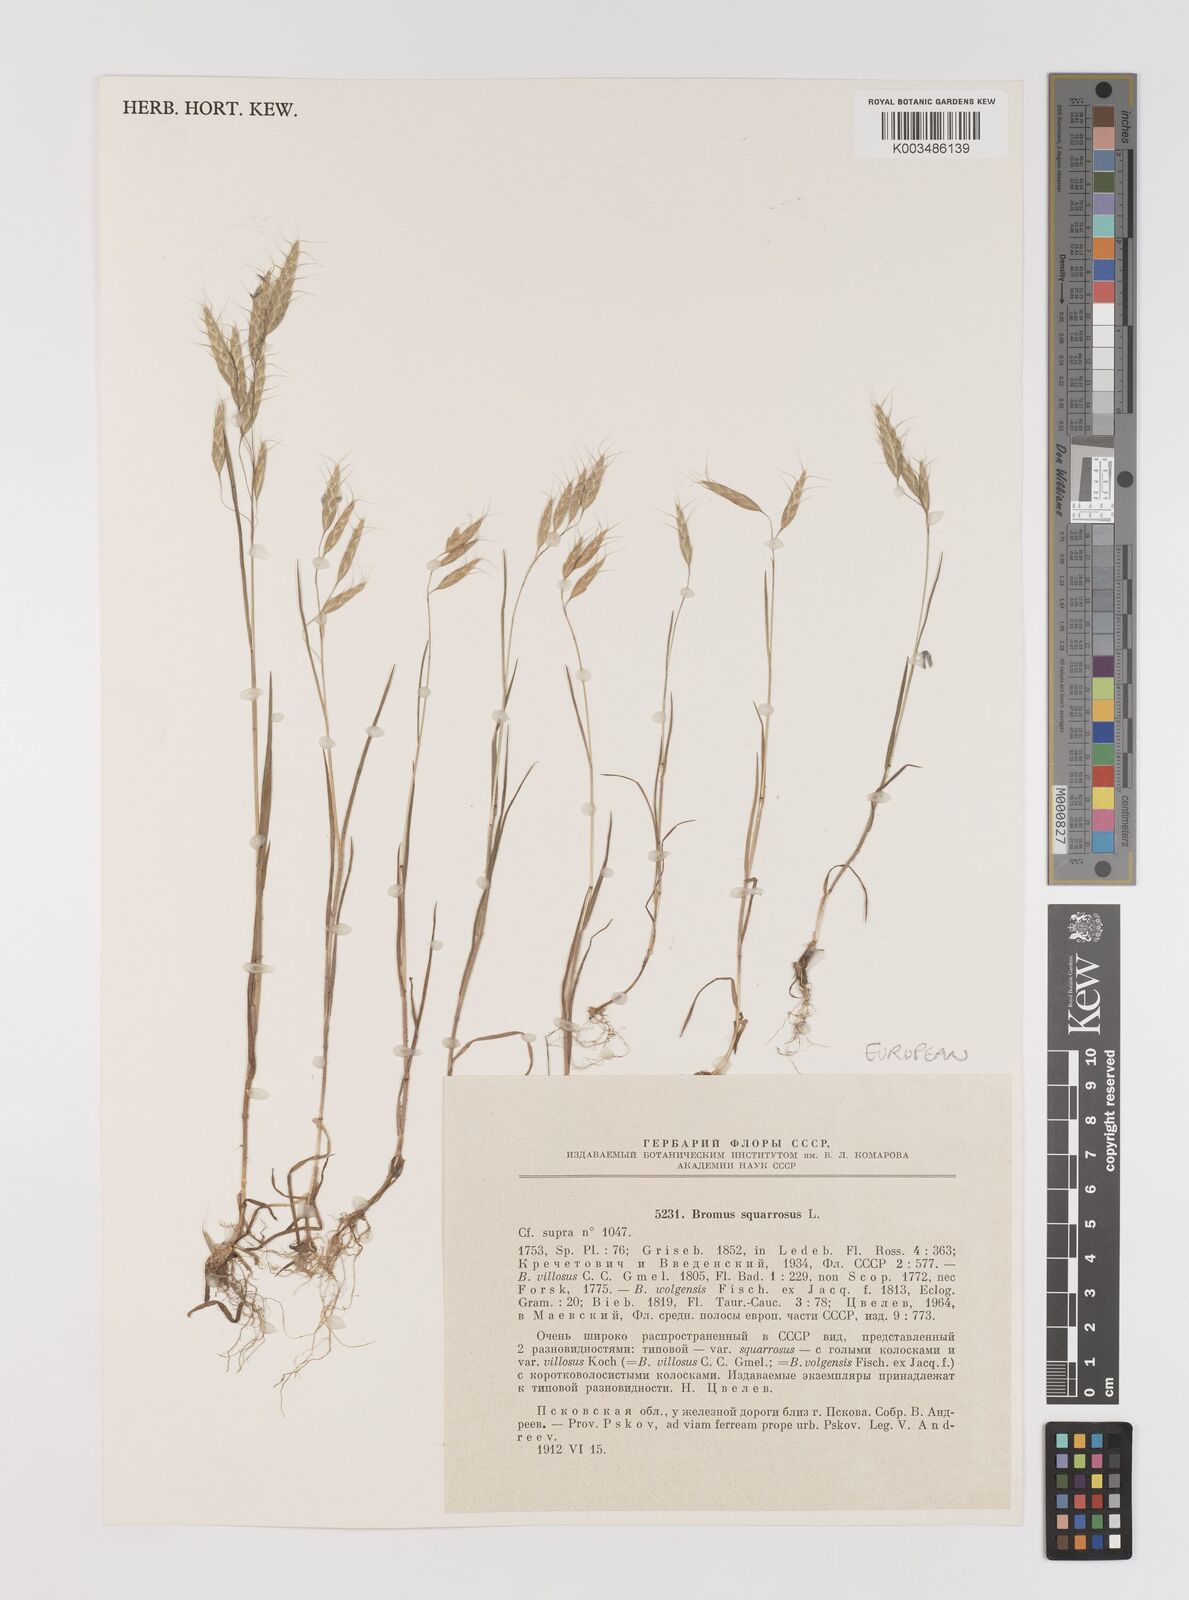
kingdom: Plantae
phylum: Tracheophyta
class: Liliopsida
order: Poales
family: Poaceae
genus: Bromus
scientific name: Bromus squarrosus
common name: Corn brome
